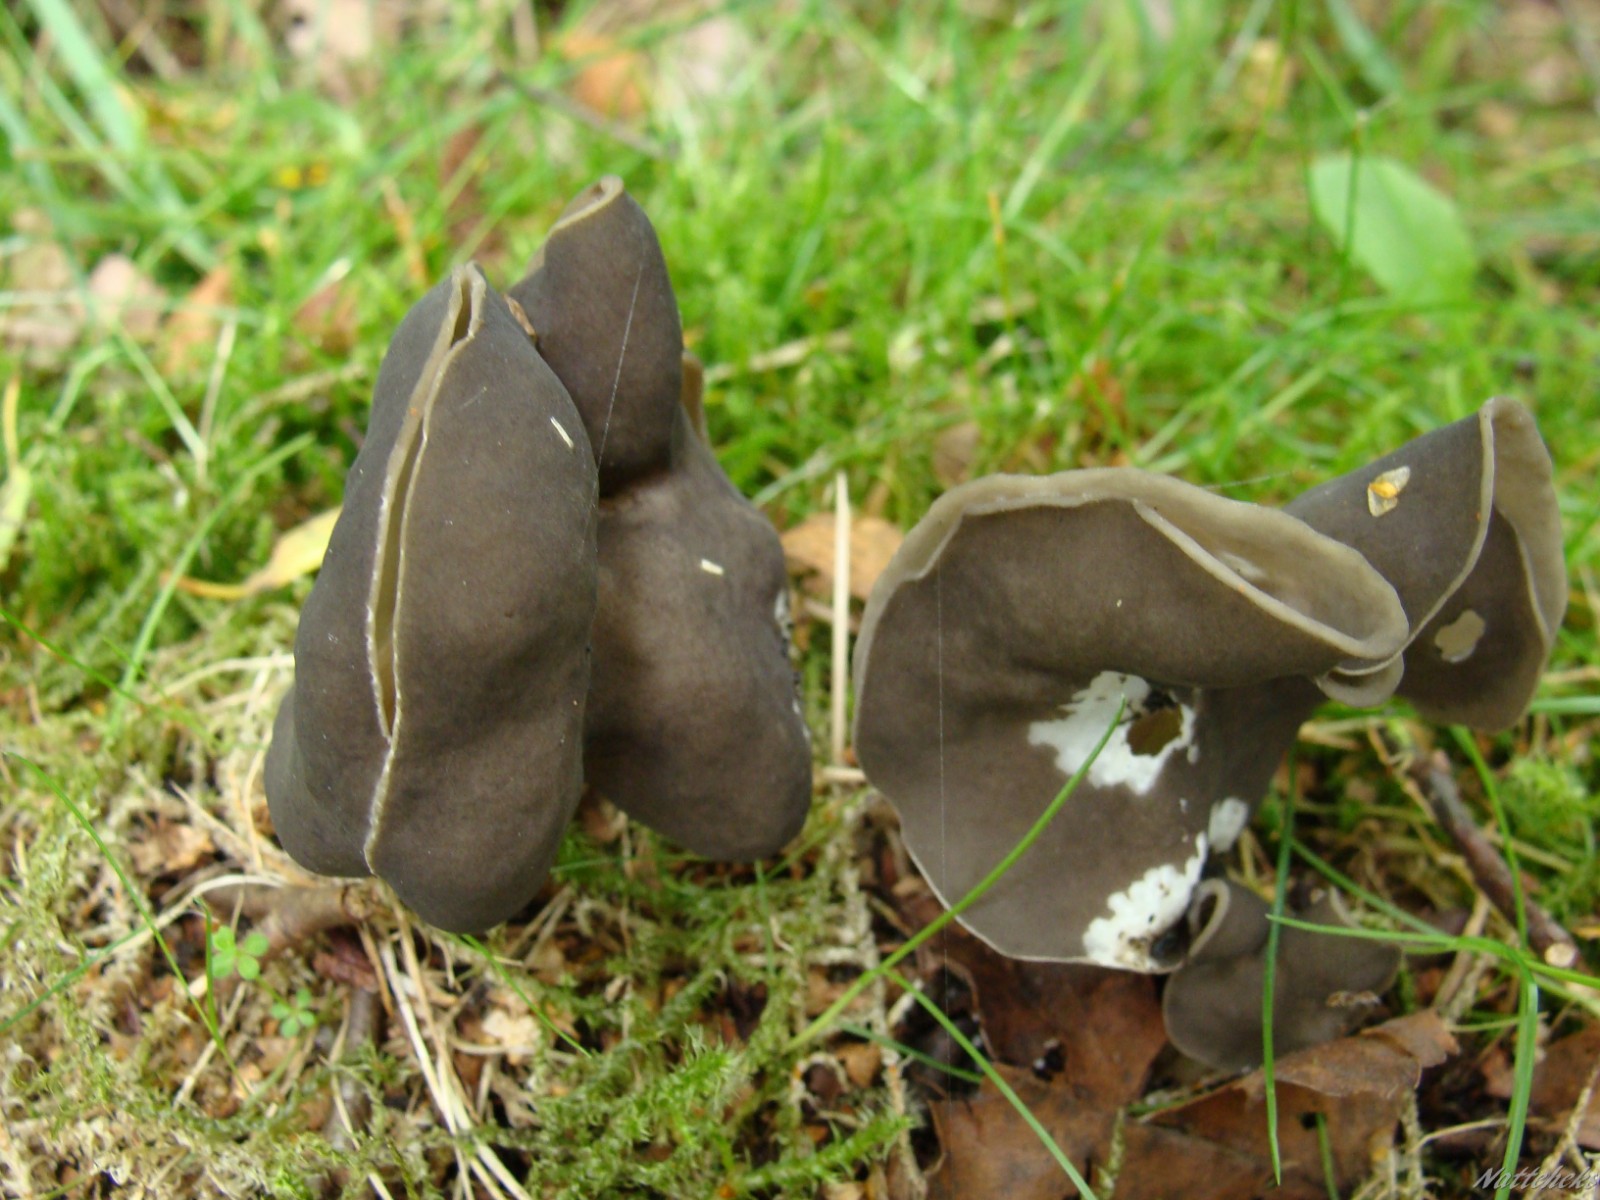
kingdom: Fungi
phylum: Ascomycota
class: Pezizomycetes
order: Pezizales
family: Helvellaceae
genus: Helvella
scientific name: Helvella
